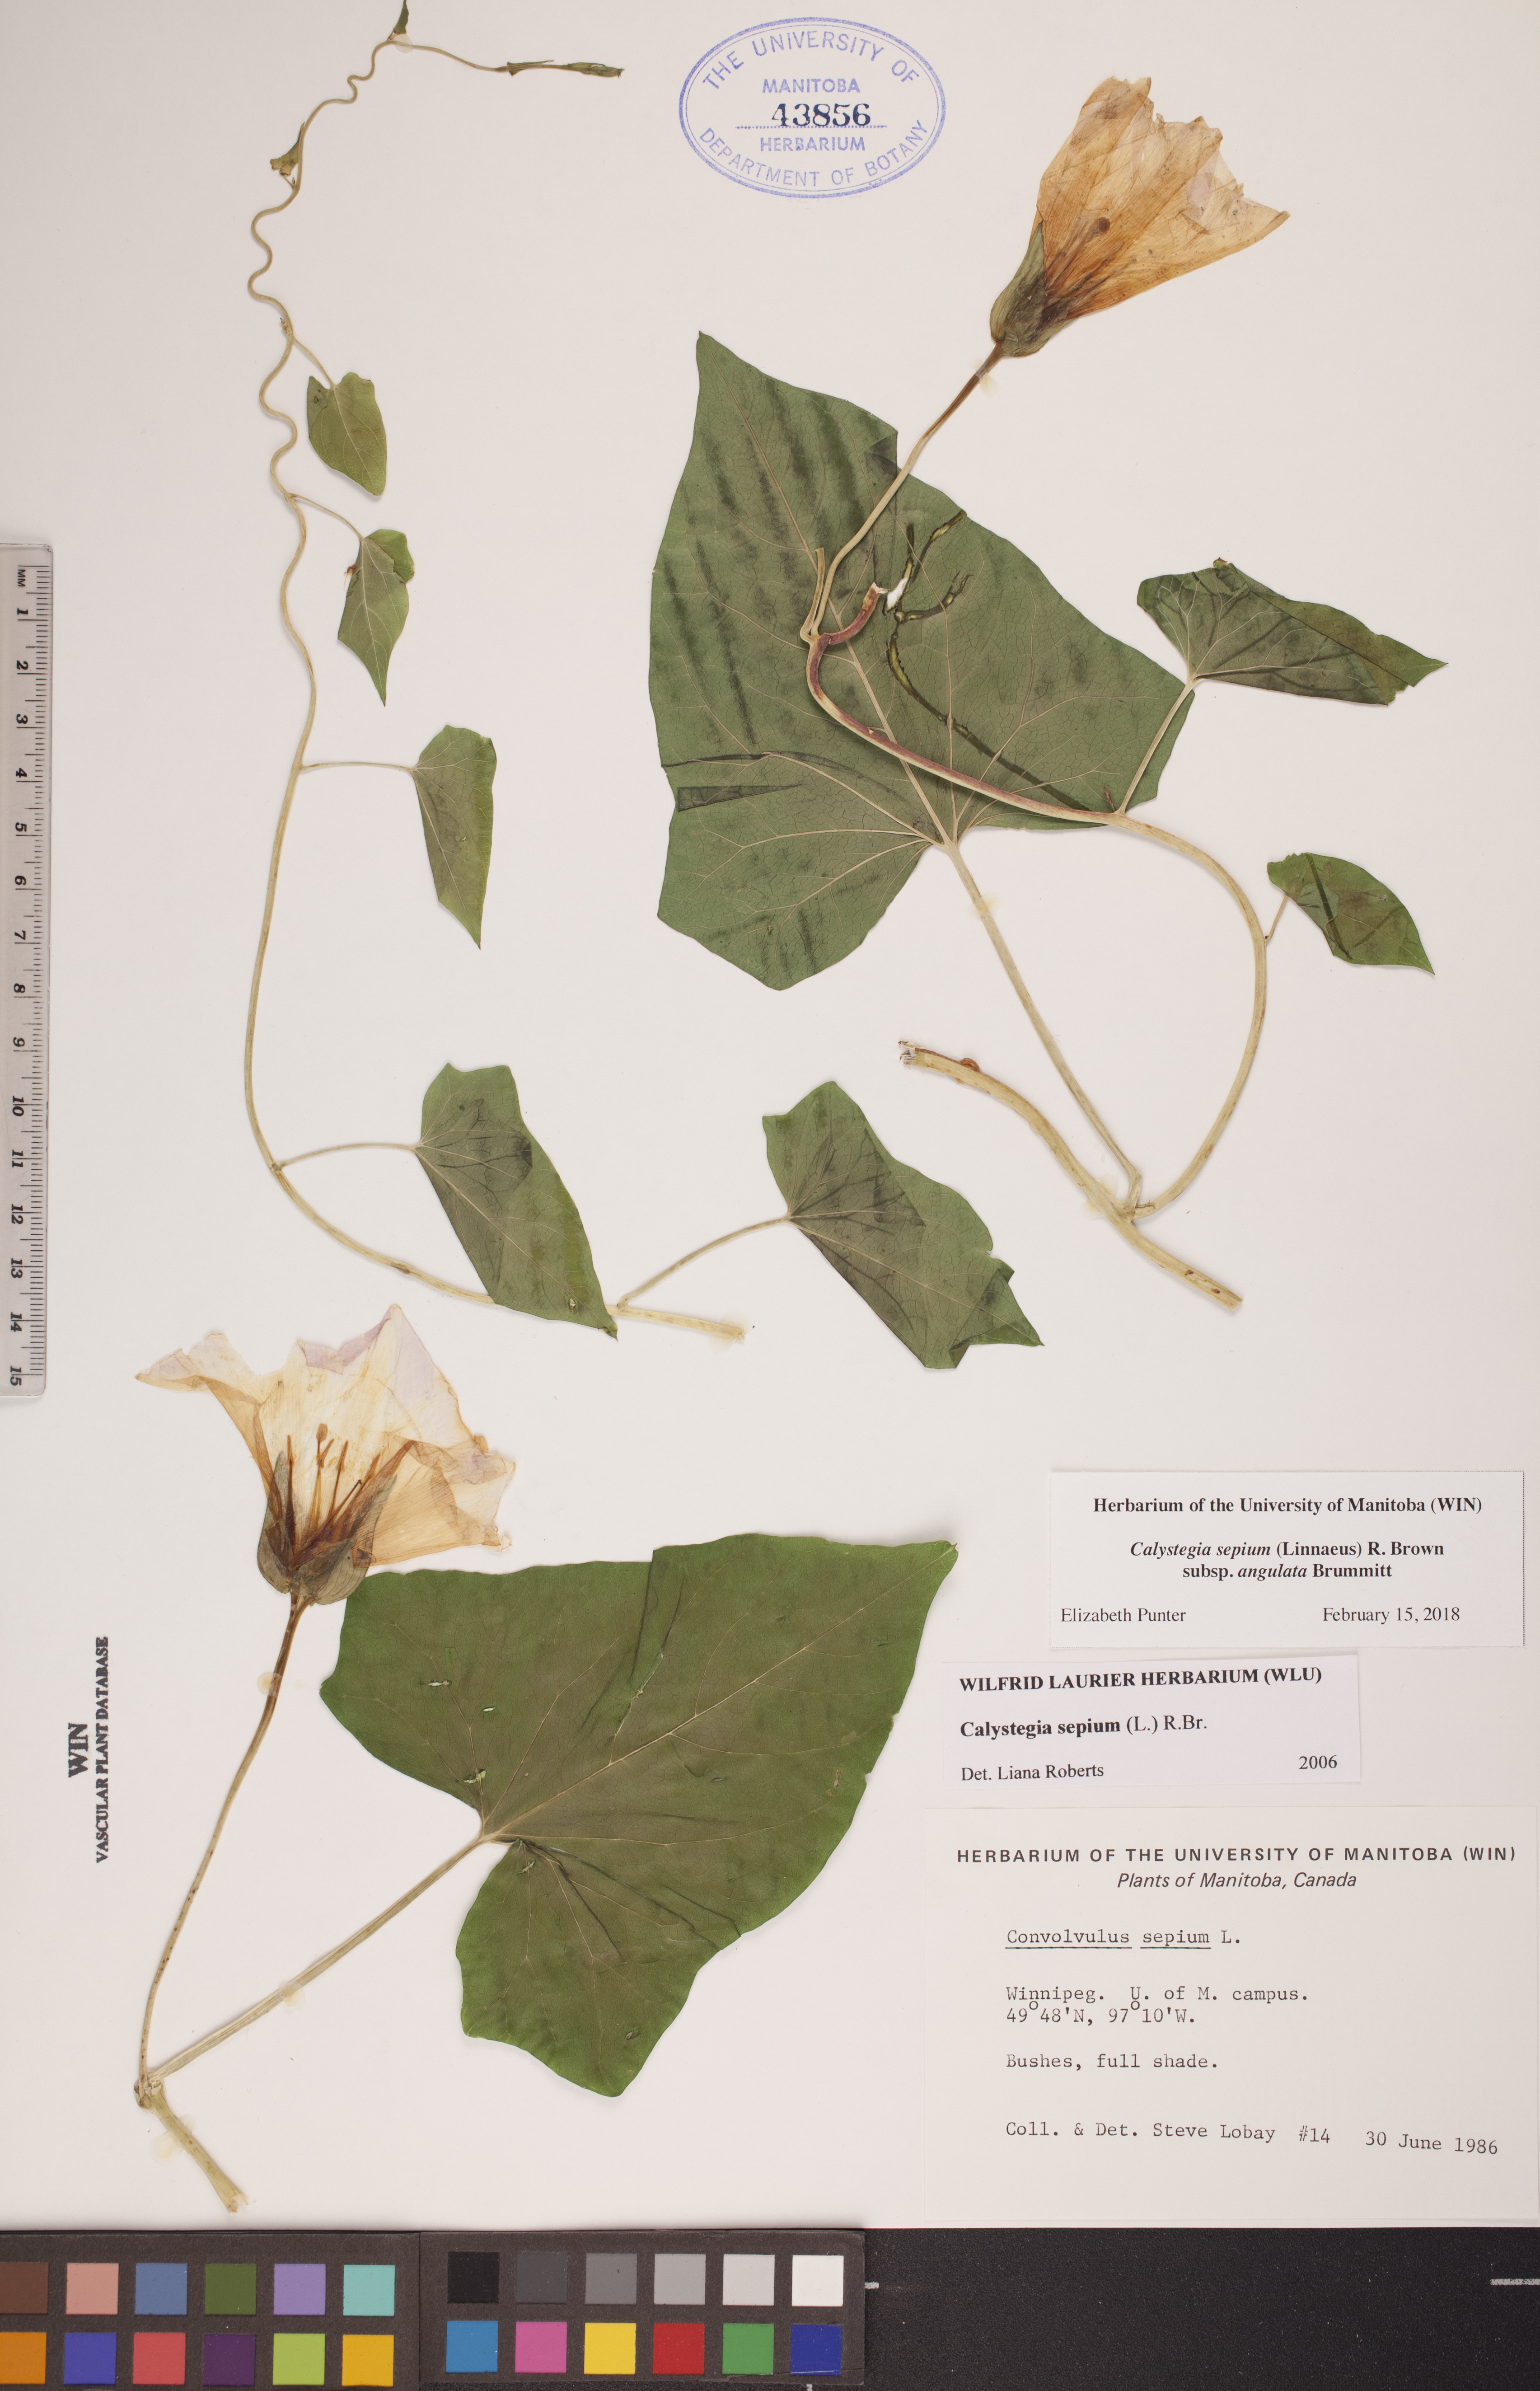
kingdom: Plantae
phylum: Tracheophyta
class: Magnoliopsida
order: Solanales
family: Convolvulaceae
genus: Calystegia
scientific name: Calystegia sepium
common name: Hedge bindweed
